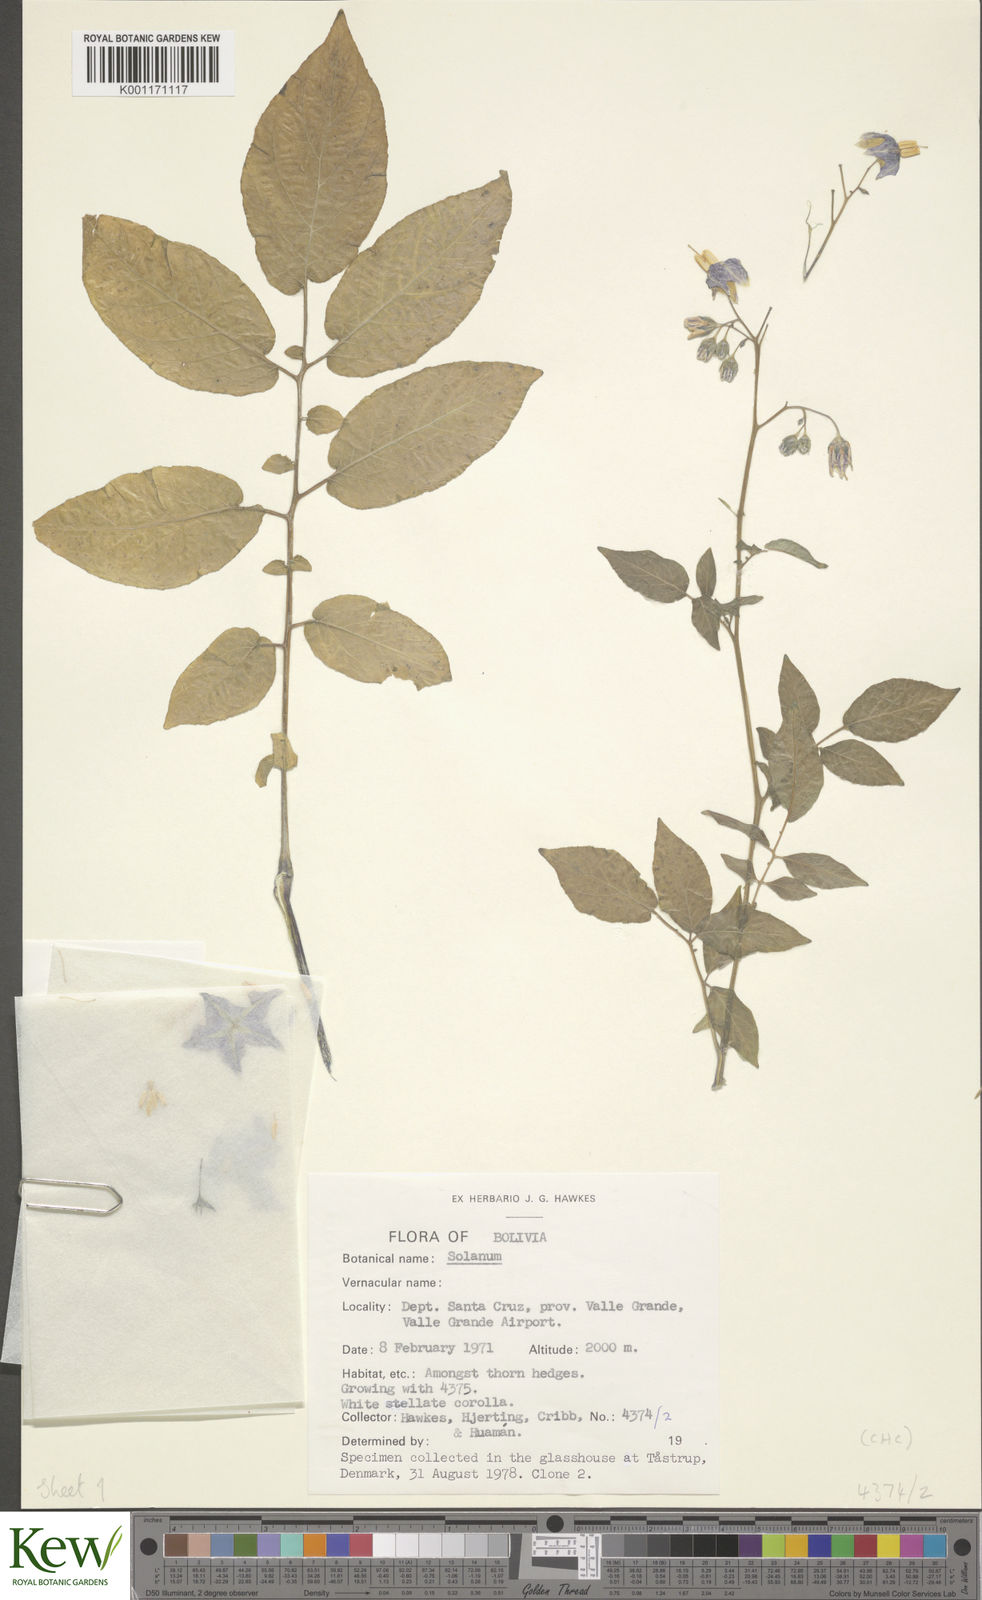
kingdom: Plantae
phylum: Tracheophyta
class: Magnoliopsida
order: Solanales
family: Solanaceae
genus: Solanum
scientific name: Solanum chacoense
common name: Chaco potato
